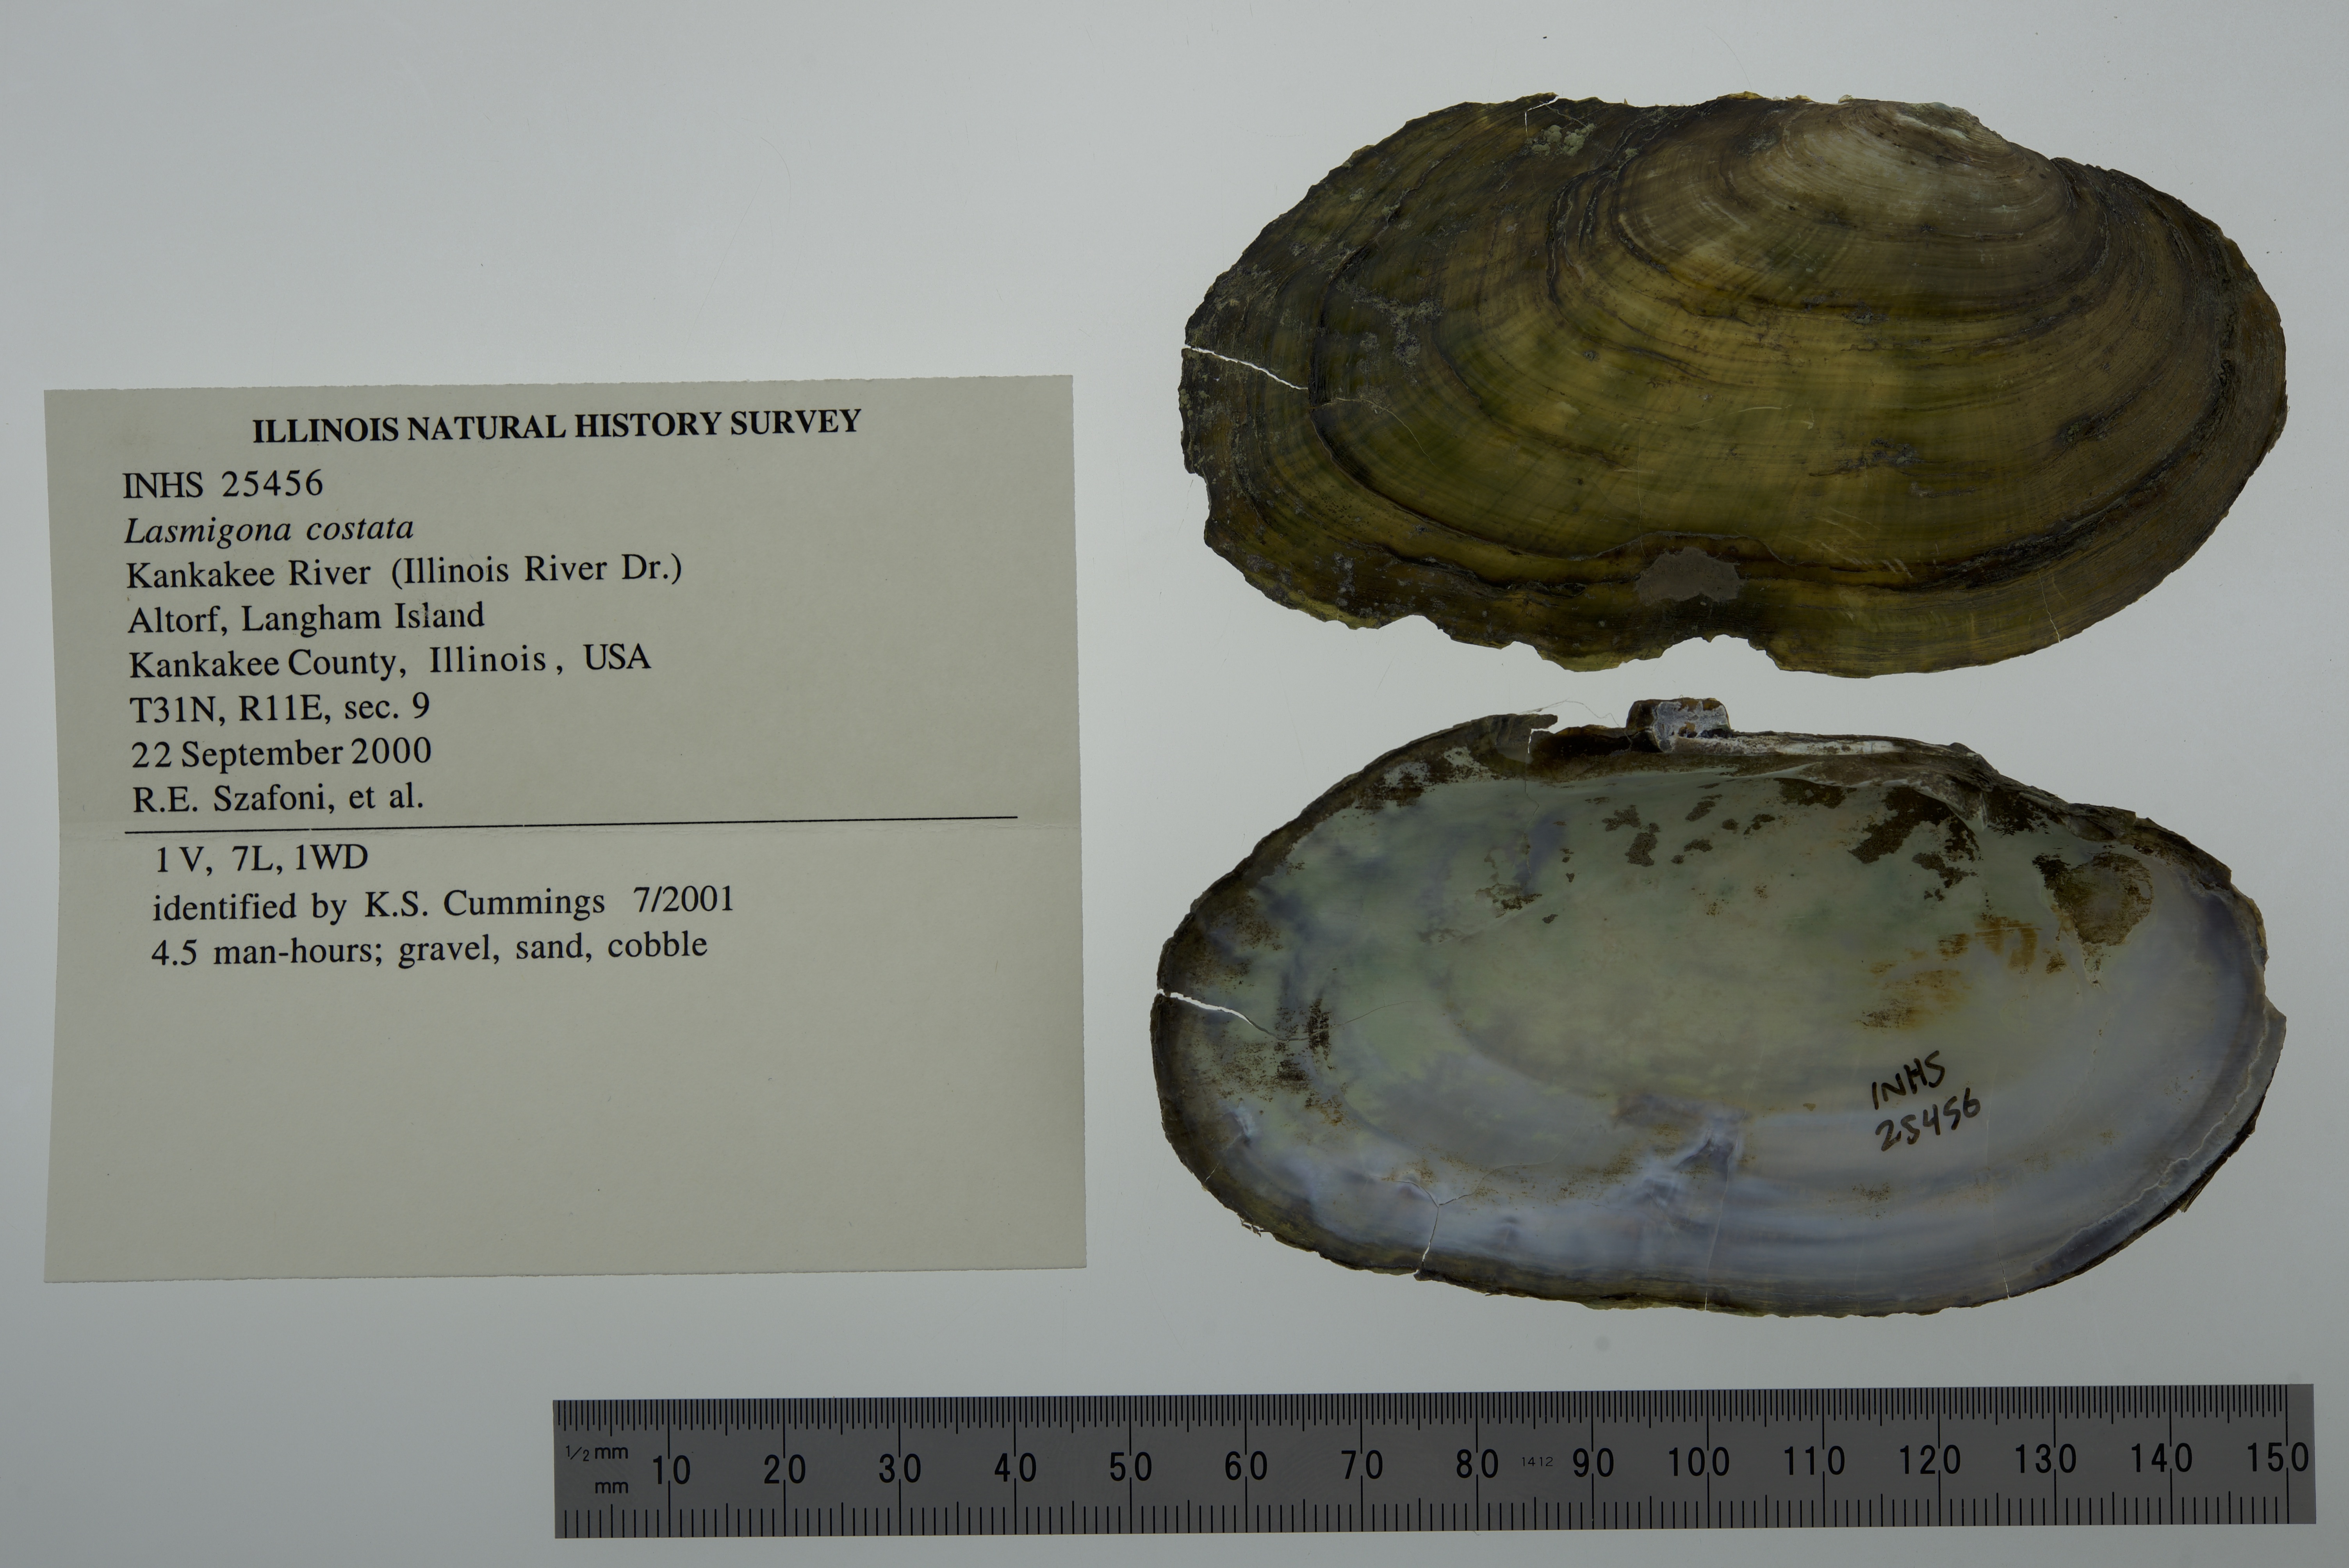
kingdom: Animalia
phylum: Mollusca
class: Bivalvia
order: Unionida
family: Unionidae
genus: Lasmigona
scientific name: Lasmigona costata
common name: Flutedshell
